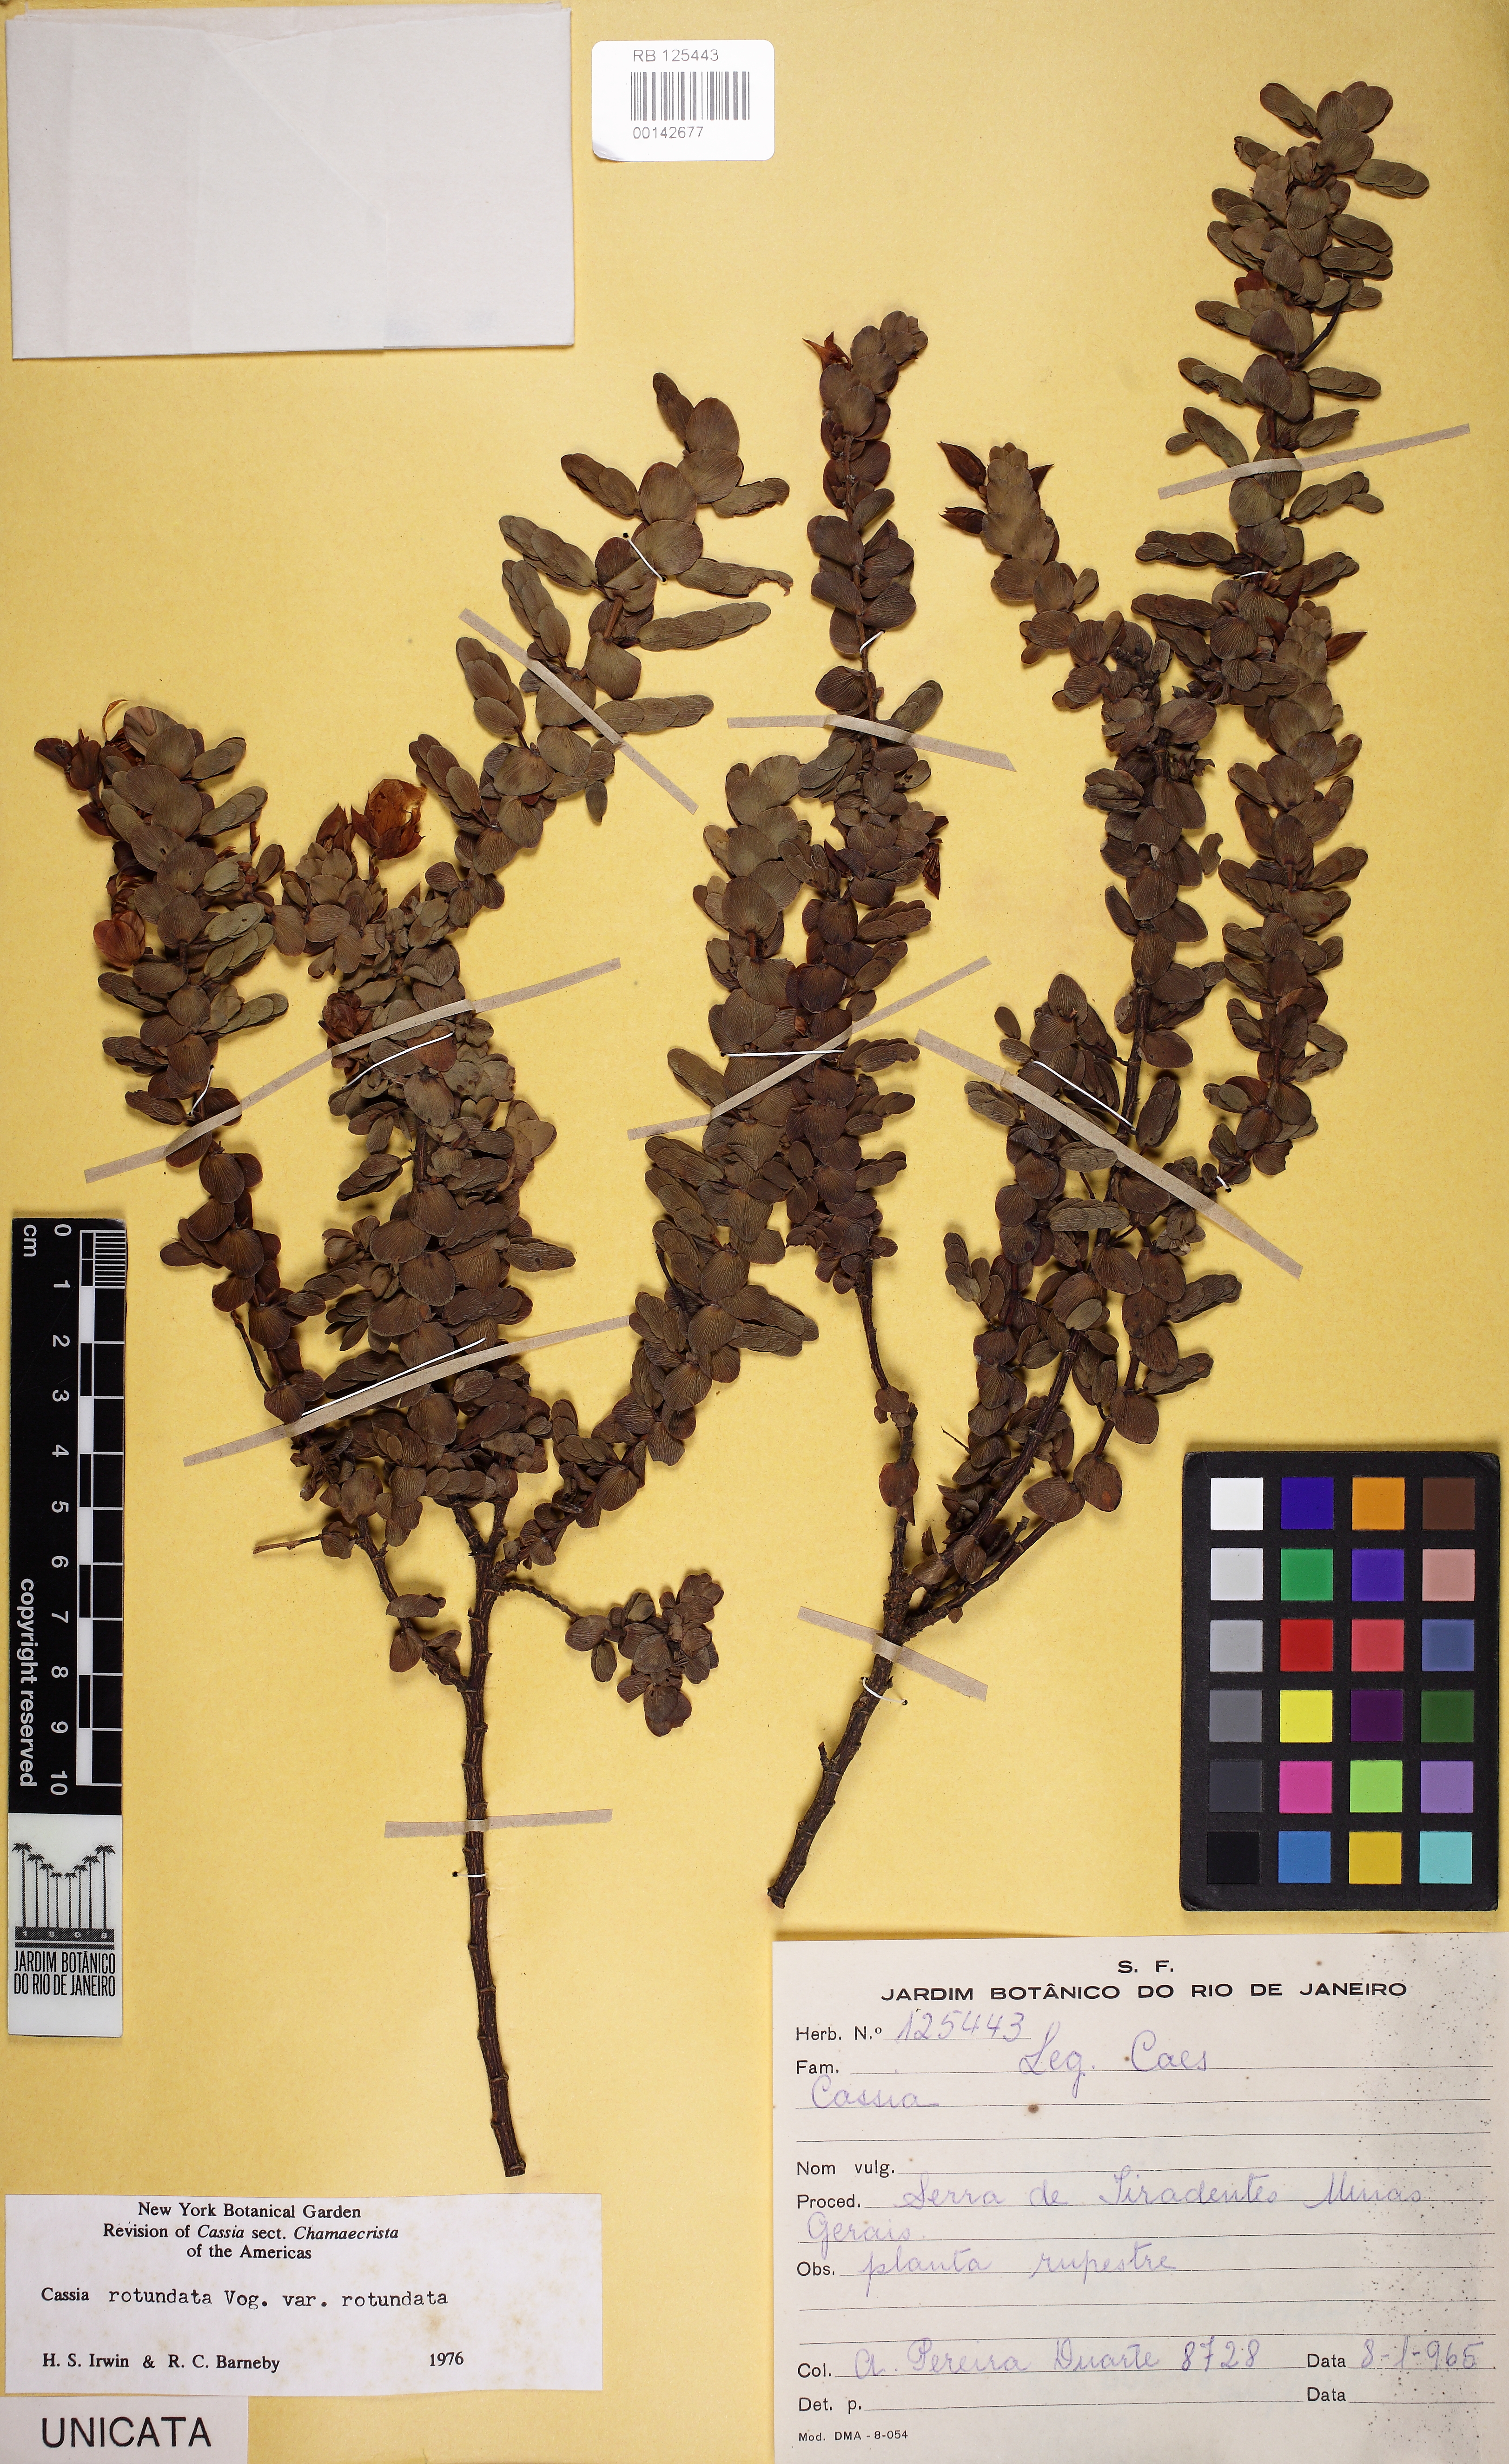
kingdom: Plantae
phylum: Tracheophyta
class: Magnoliopsida
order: Fabales
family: Fabaceae
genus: Chamaecrista
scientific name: Chamaecrista rotundata
